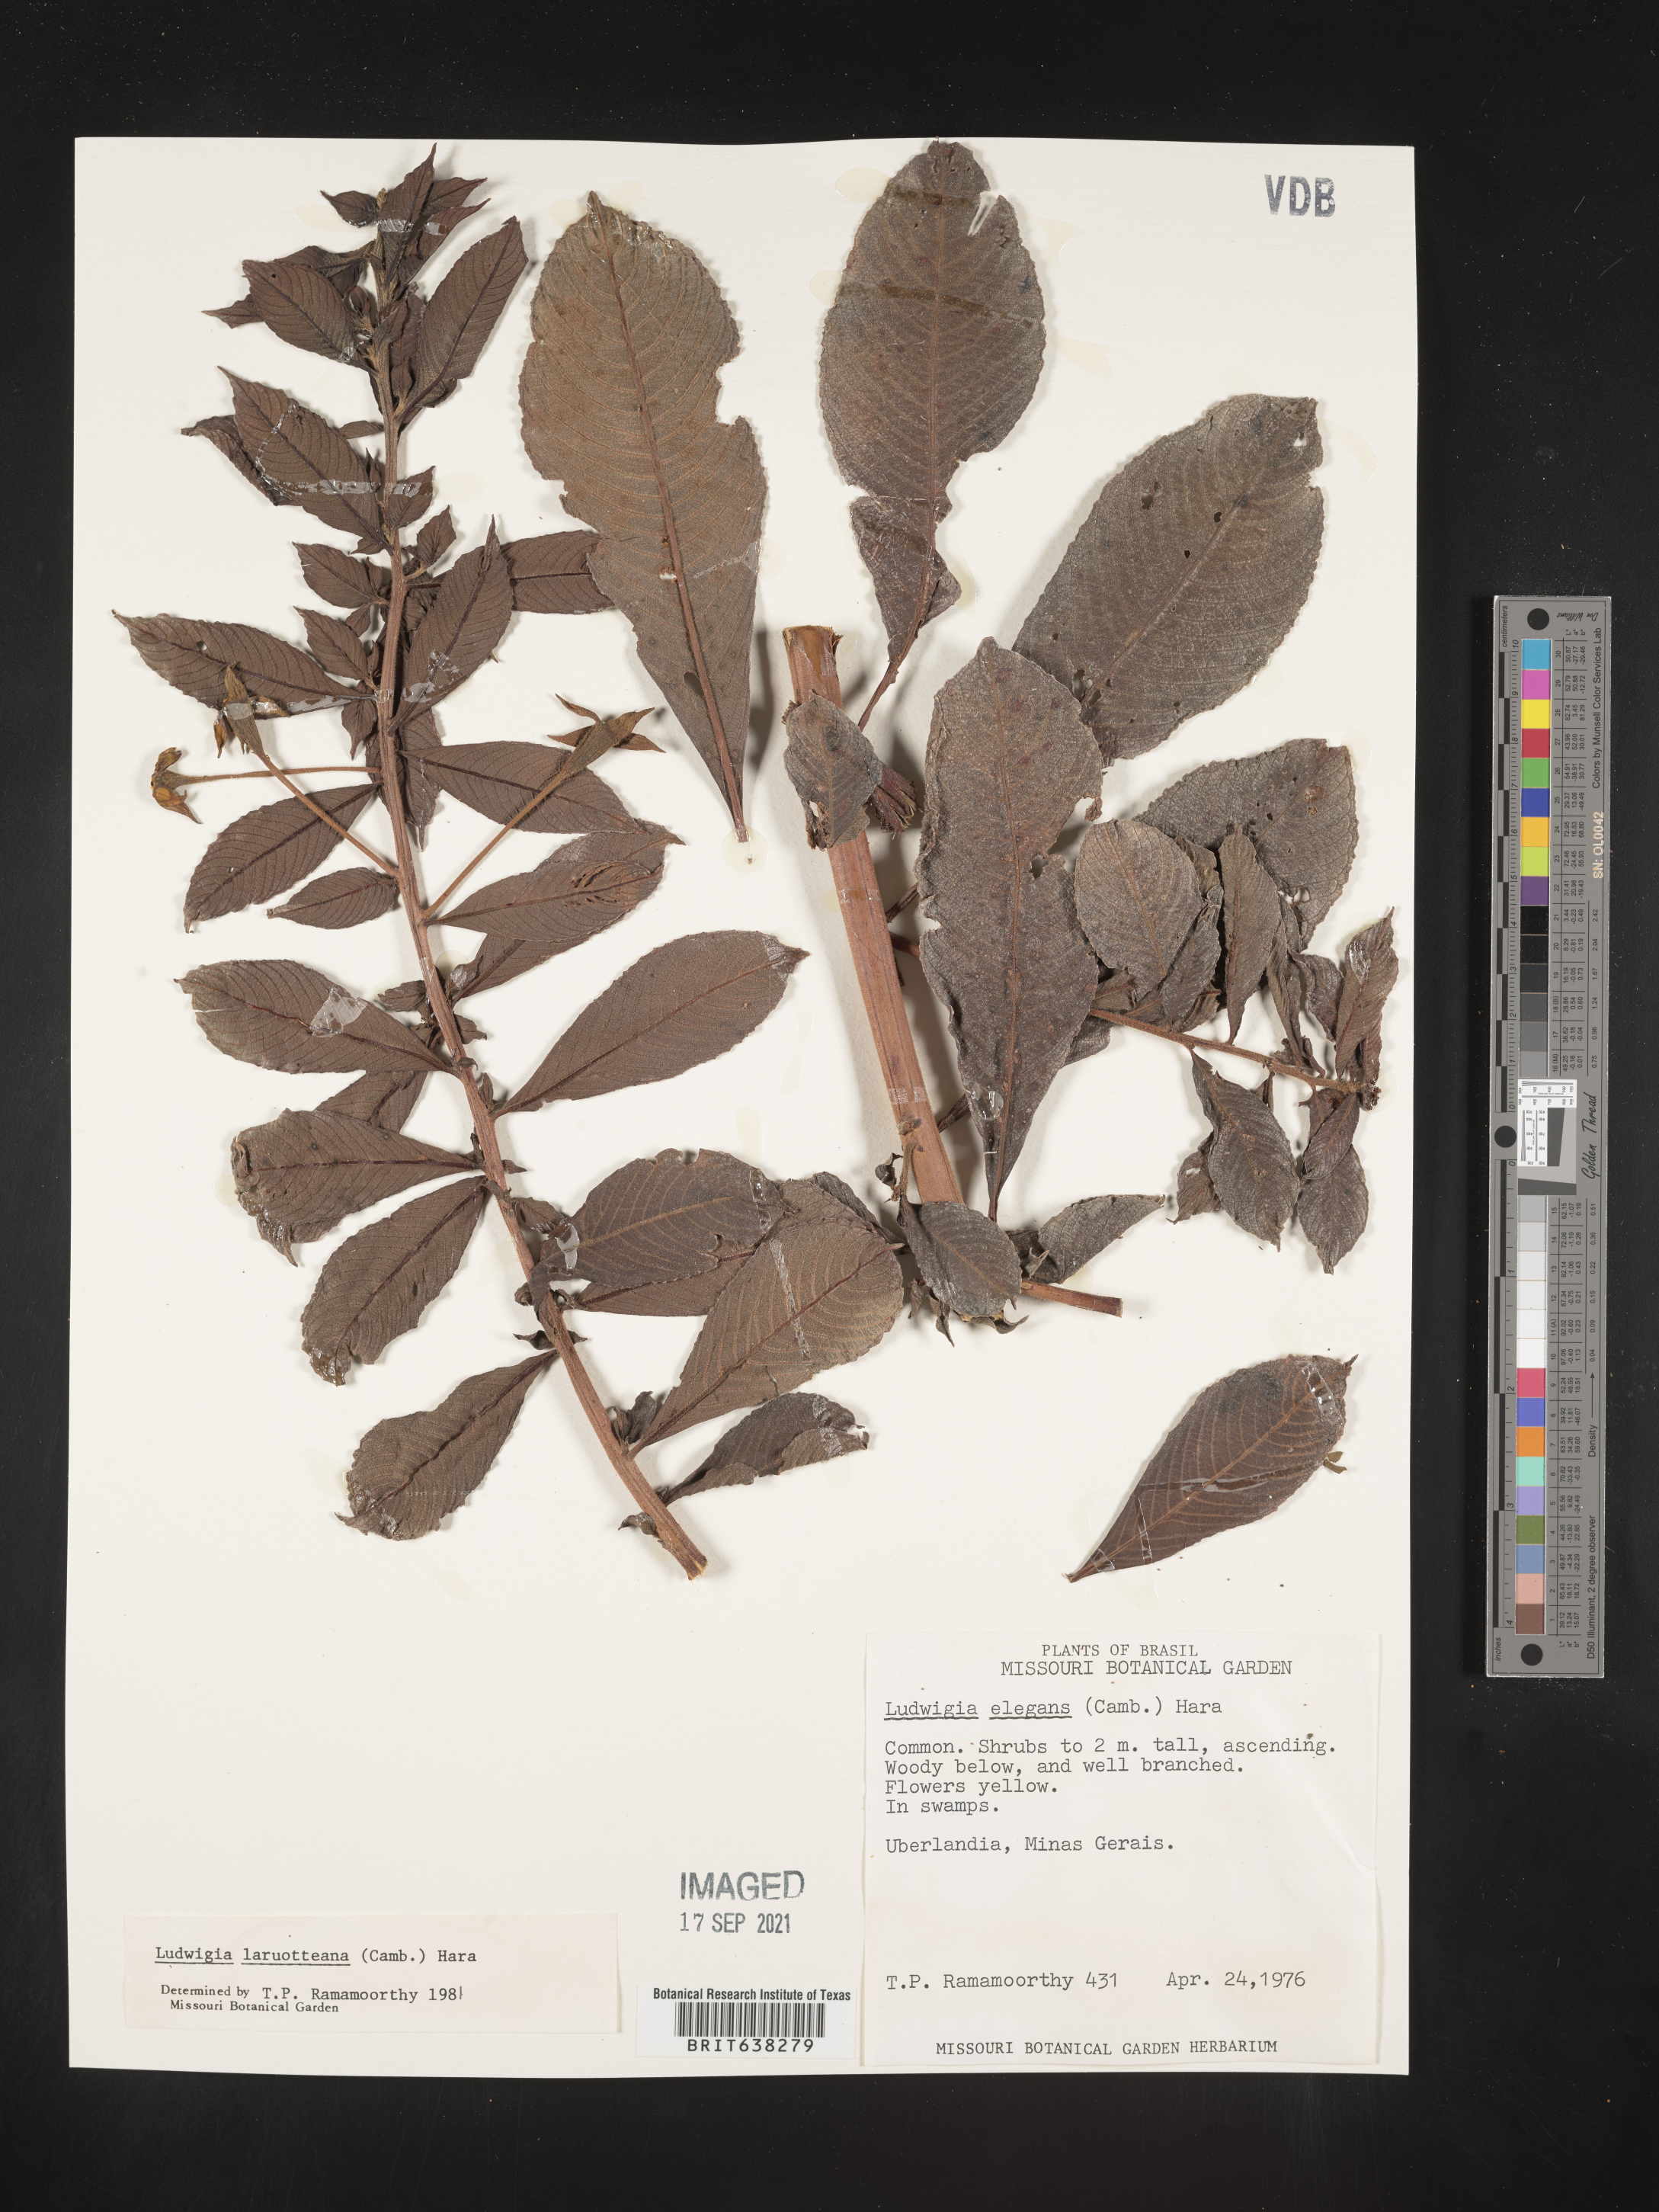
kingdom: Plantae
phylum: Tracheophyta
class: Magnoliopsida
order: Myrtales
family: Onagraceae
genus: Ludwigia
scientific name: Ludwigia
